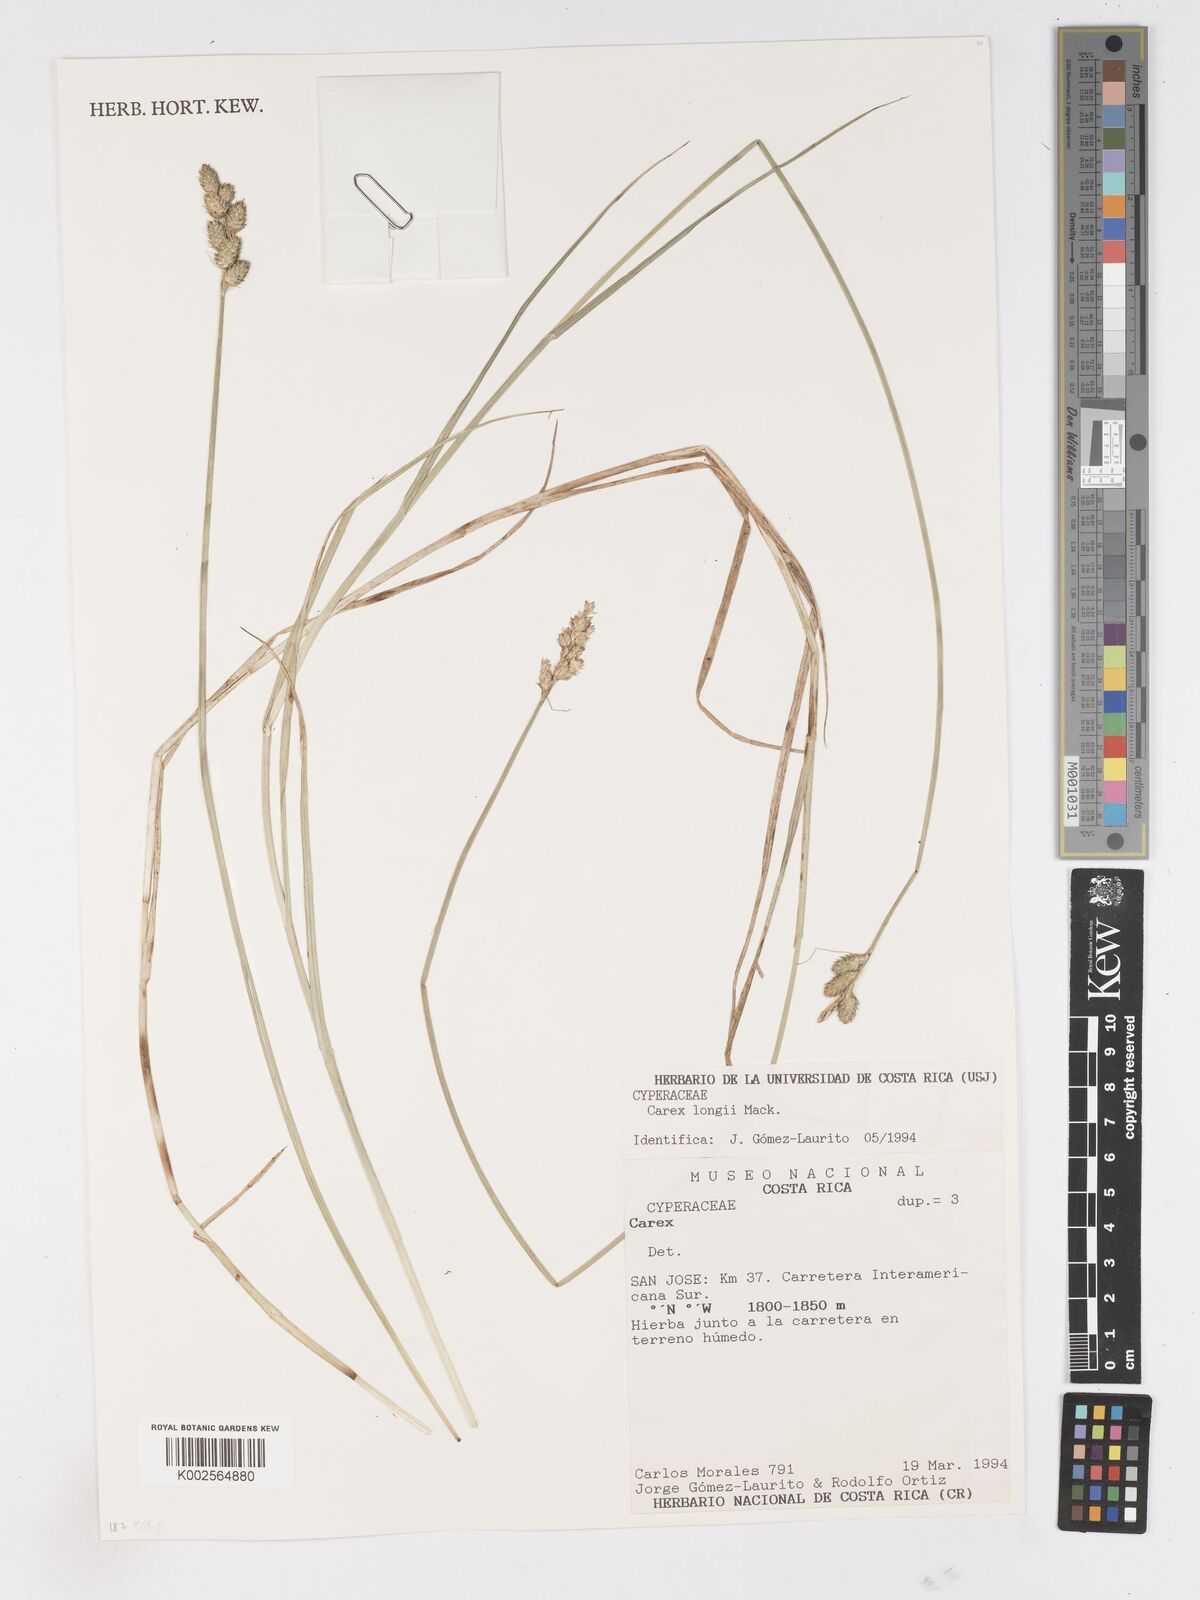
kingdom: Plantae
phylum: Tracheophyta
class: Liliopsida
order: Poales
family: Cyperaceae
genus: Carex
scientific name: Carex longii
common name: Long's sedge
